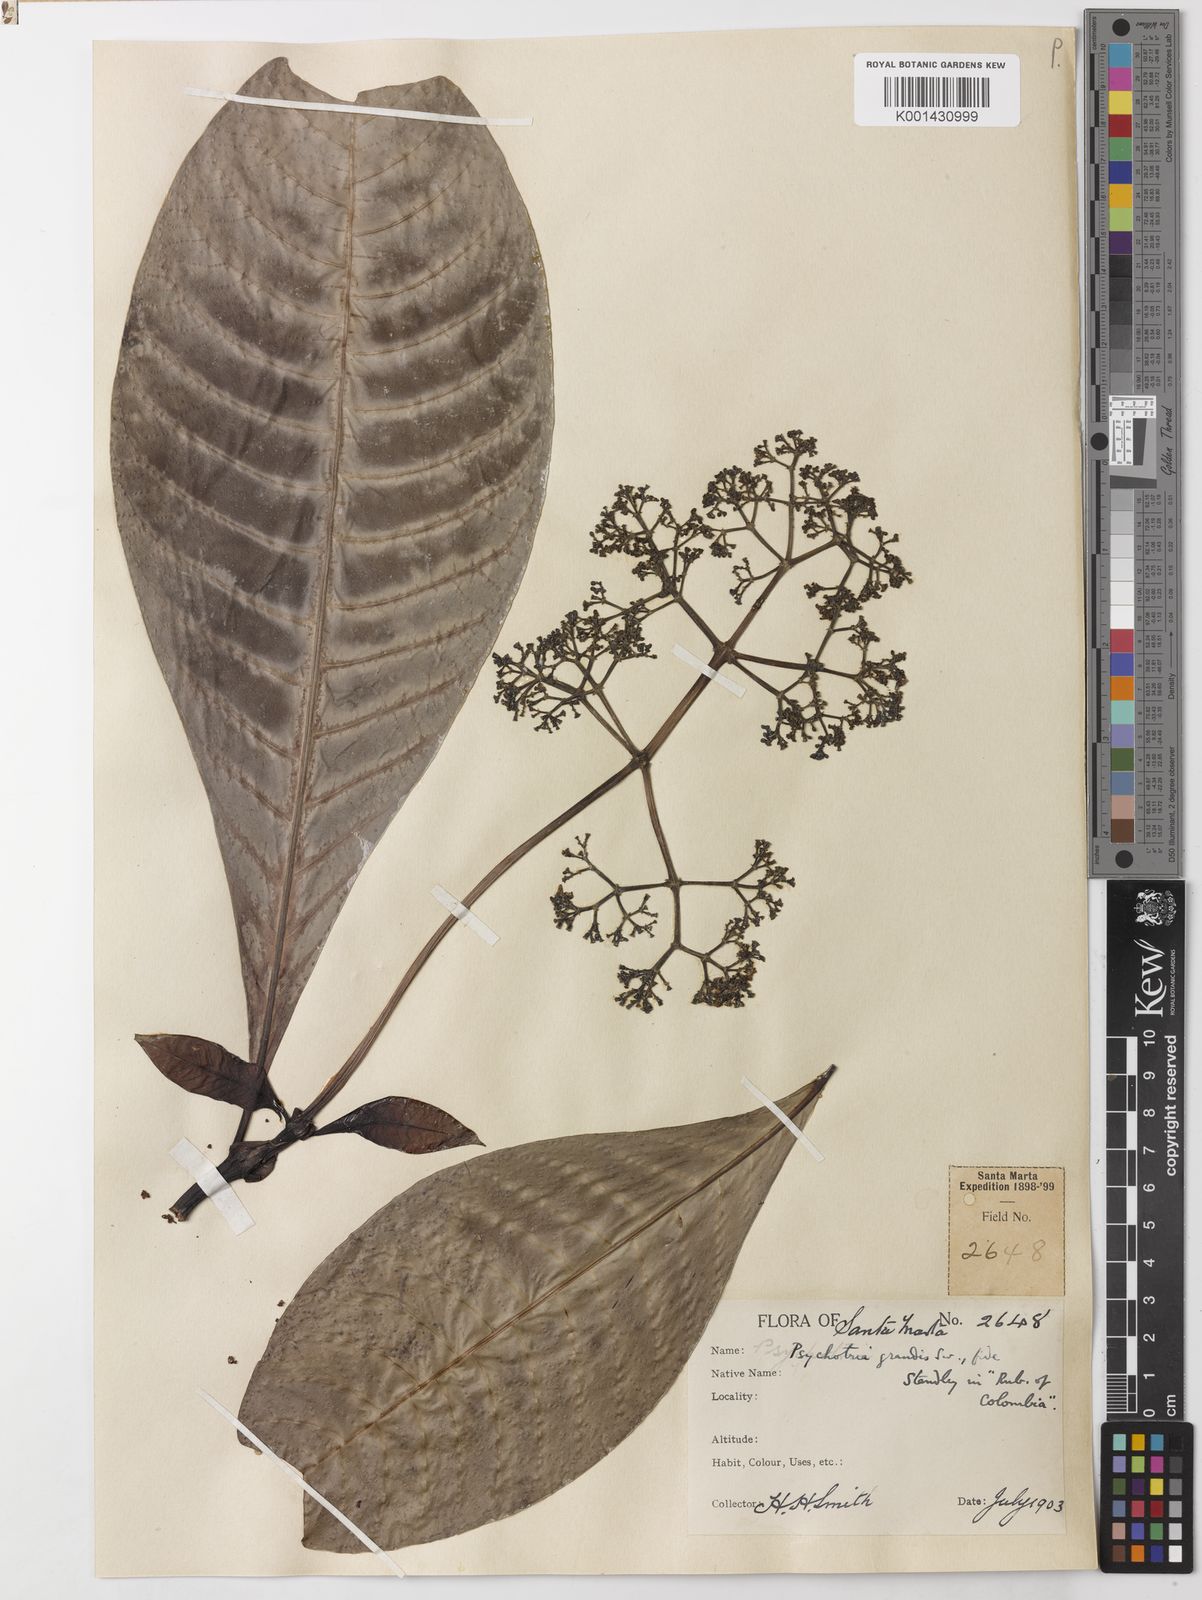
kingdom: Plantae
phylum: Tracheophyta
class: Magnoliopsida
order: Gentianales
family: Rubiaceae
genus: Psychotria
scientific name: Psychotria grandis
